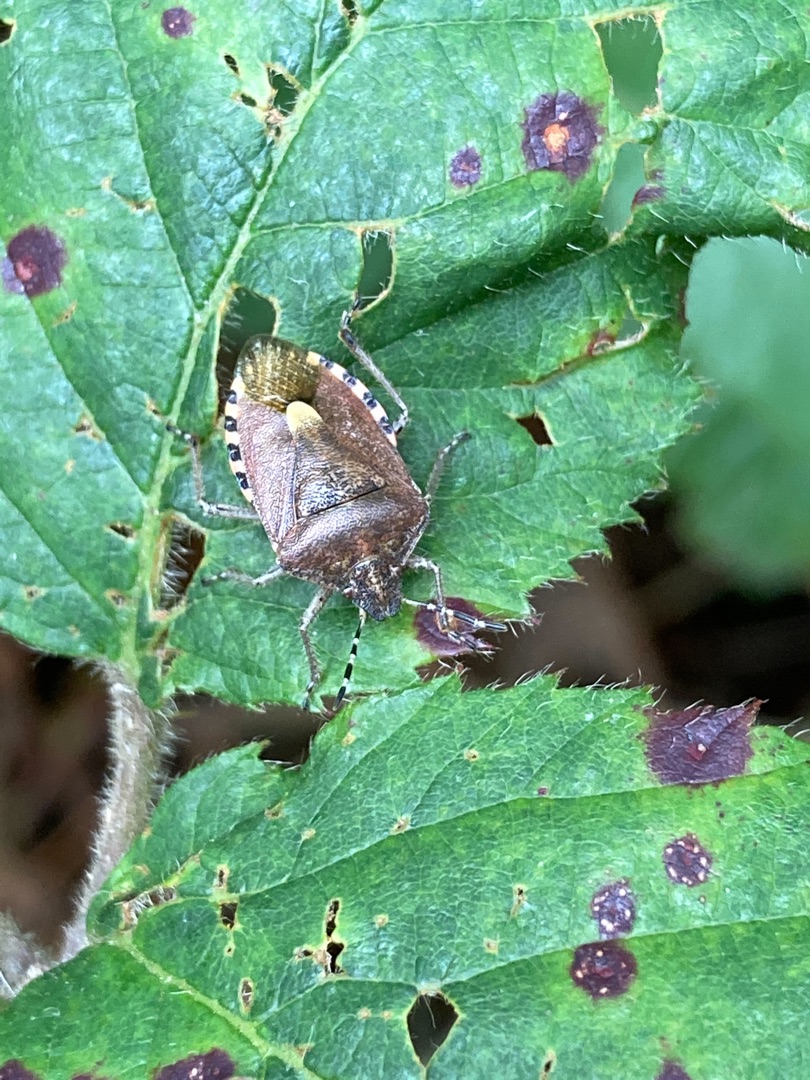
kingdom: Animalia
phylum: Arthropoda
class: Insecta
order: Hemiptera
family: Pentatomidae
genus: Dolycoris
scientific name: Dolycoris baccarum
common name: Almindelig bærtæge
